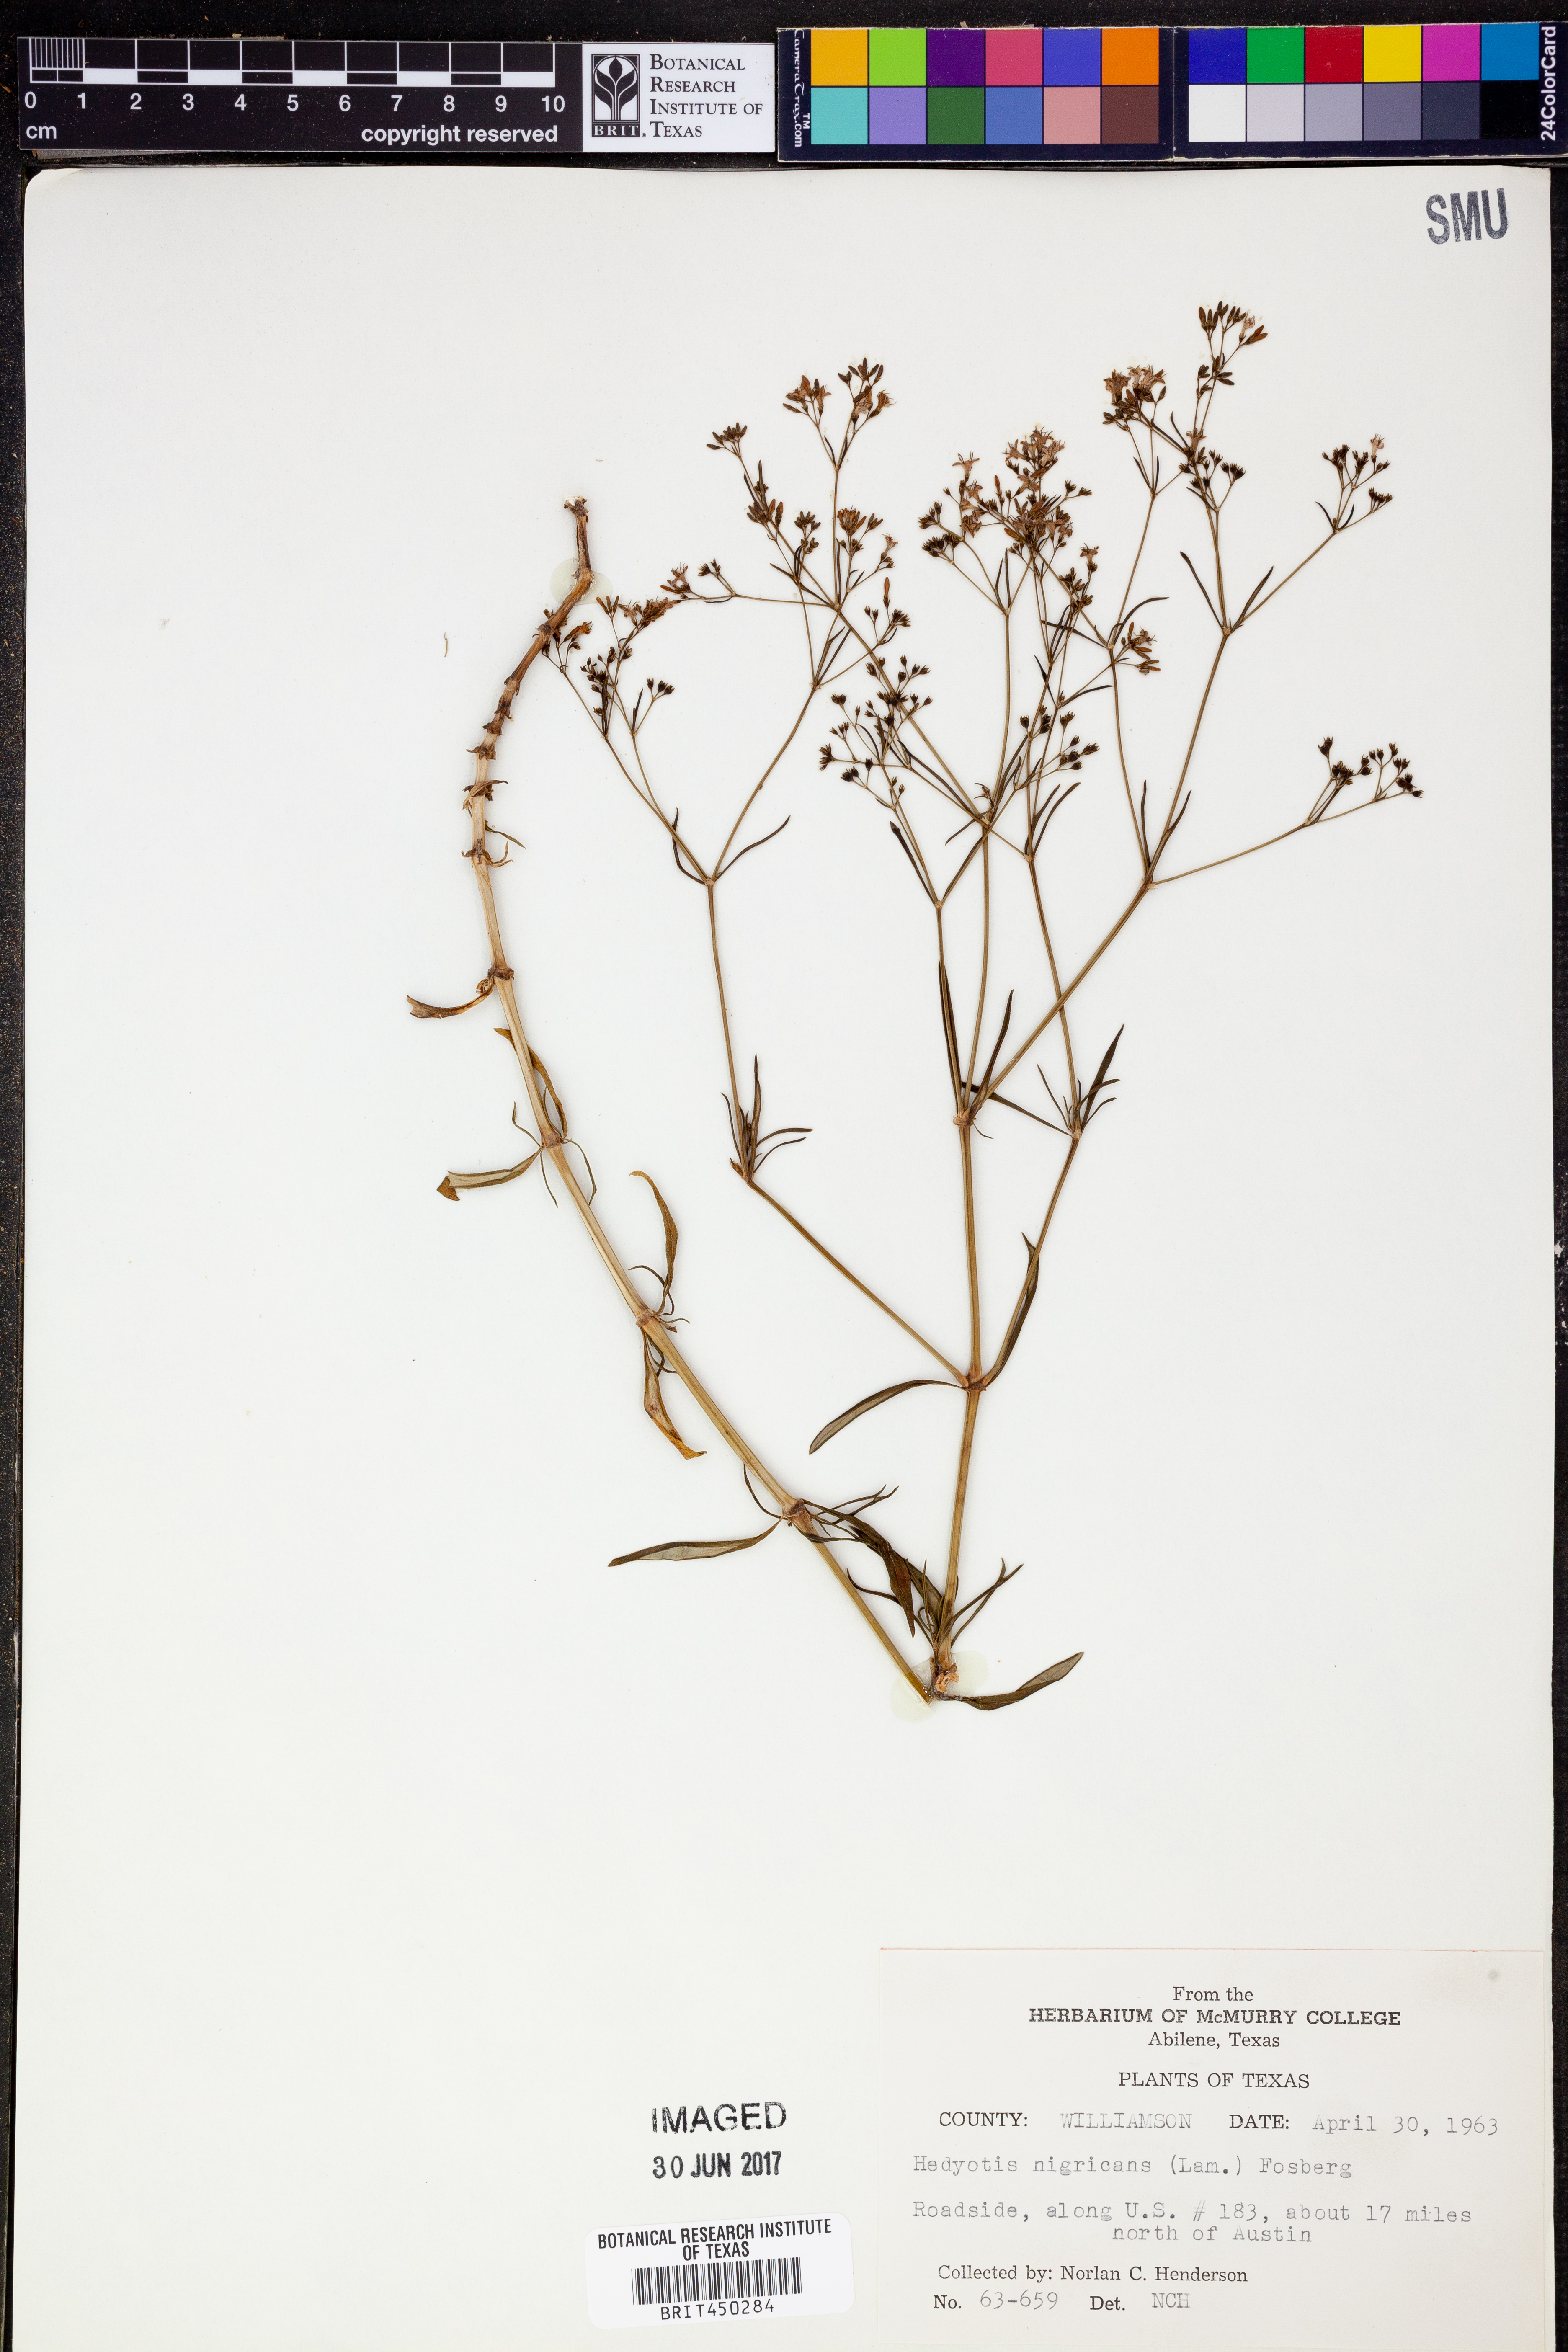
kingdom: Plantae
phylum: Tracheophyta
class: Magnoliopsida
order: Gentianales
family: Rubiaceae
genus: Stenaria
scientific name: Stenaria nigricans
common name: Diamondflowers
